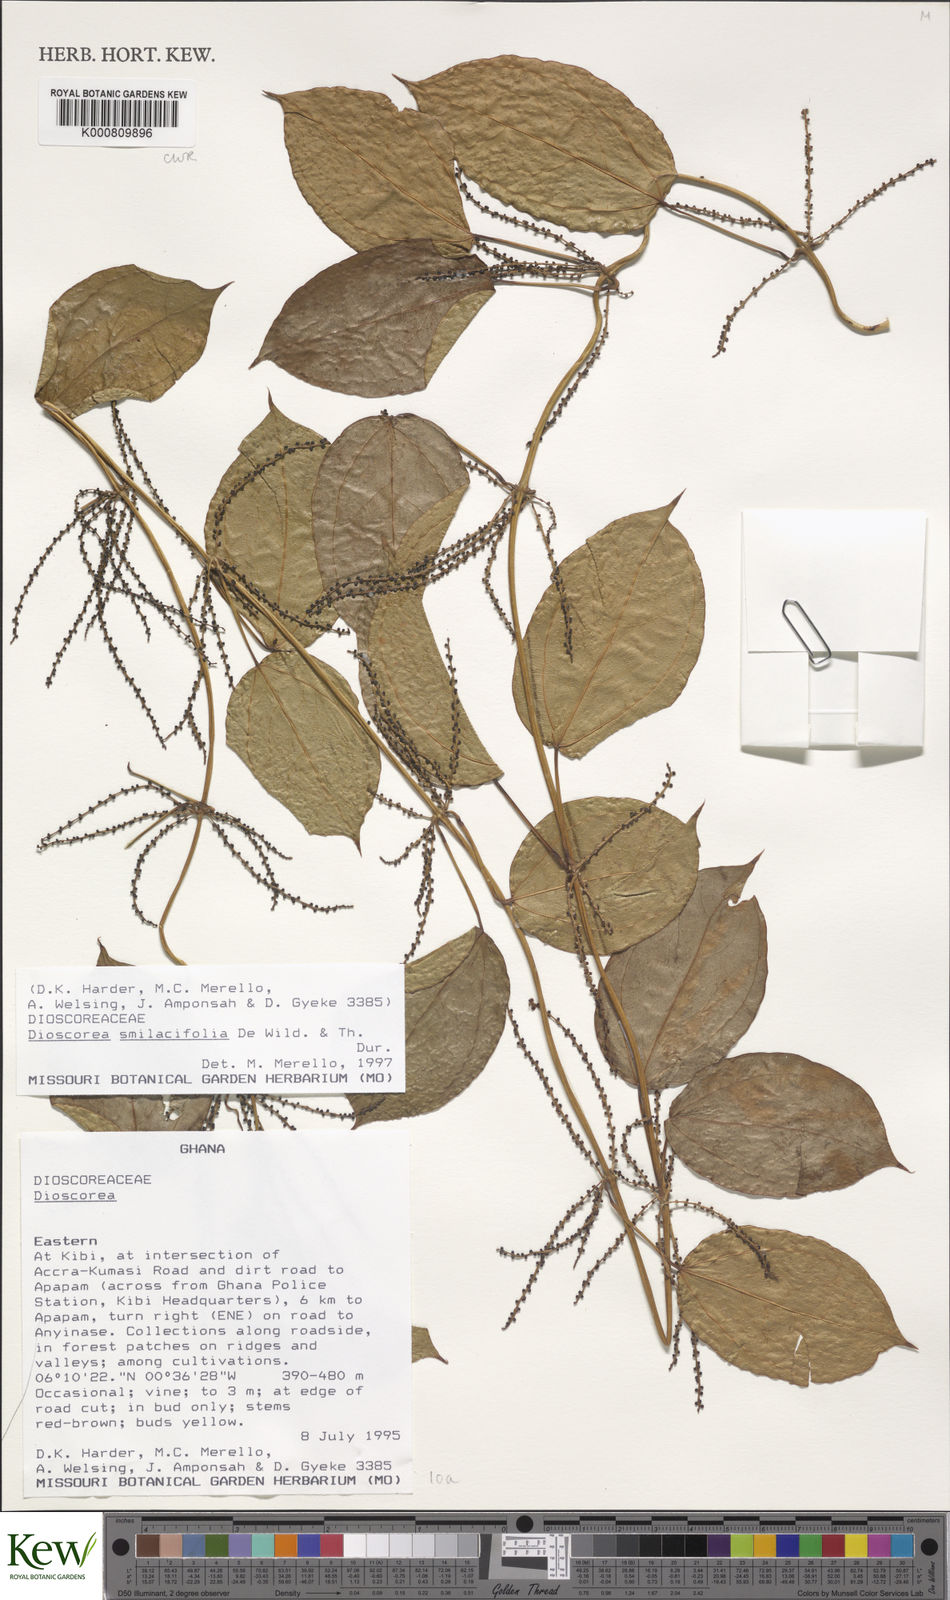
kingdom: Plantae
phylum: Tracheophyta
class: Liliopsida
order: Dioscoreales
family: Dioscoreaceae
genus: Dioscorea
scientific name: Dioscorea smilacifolia
